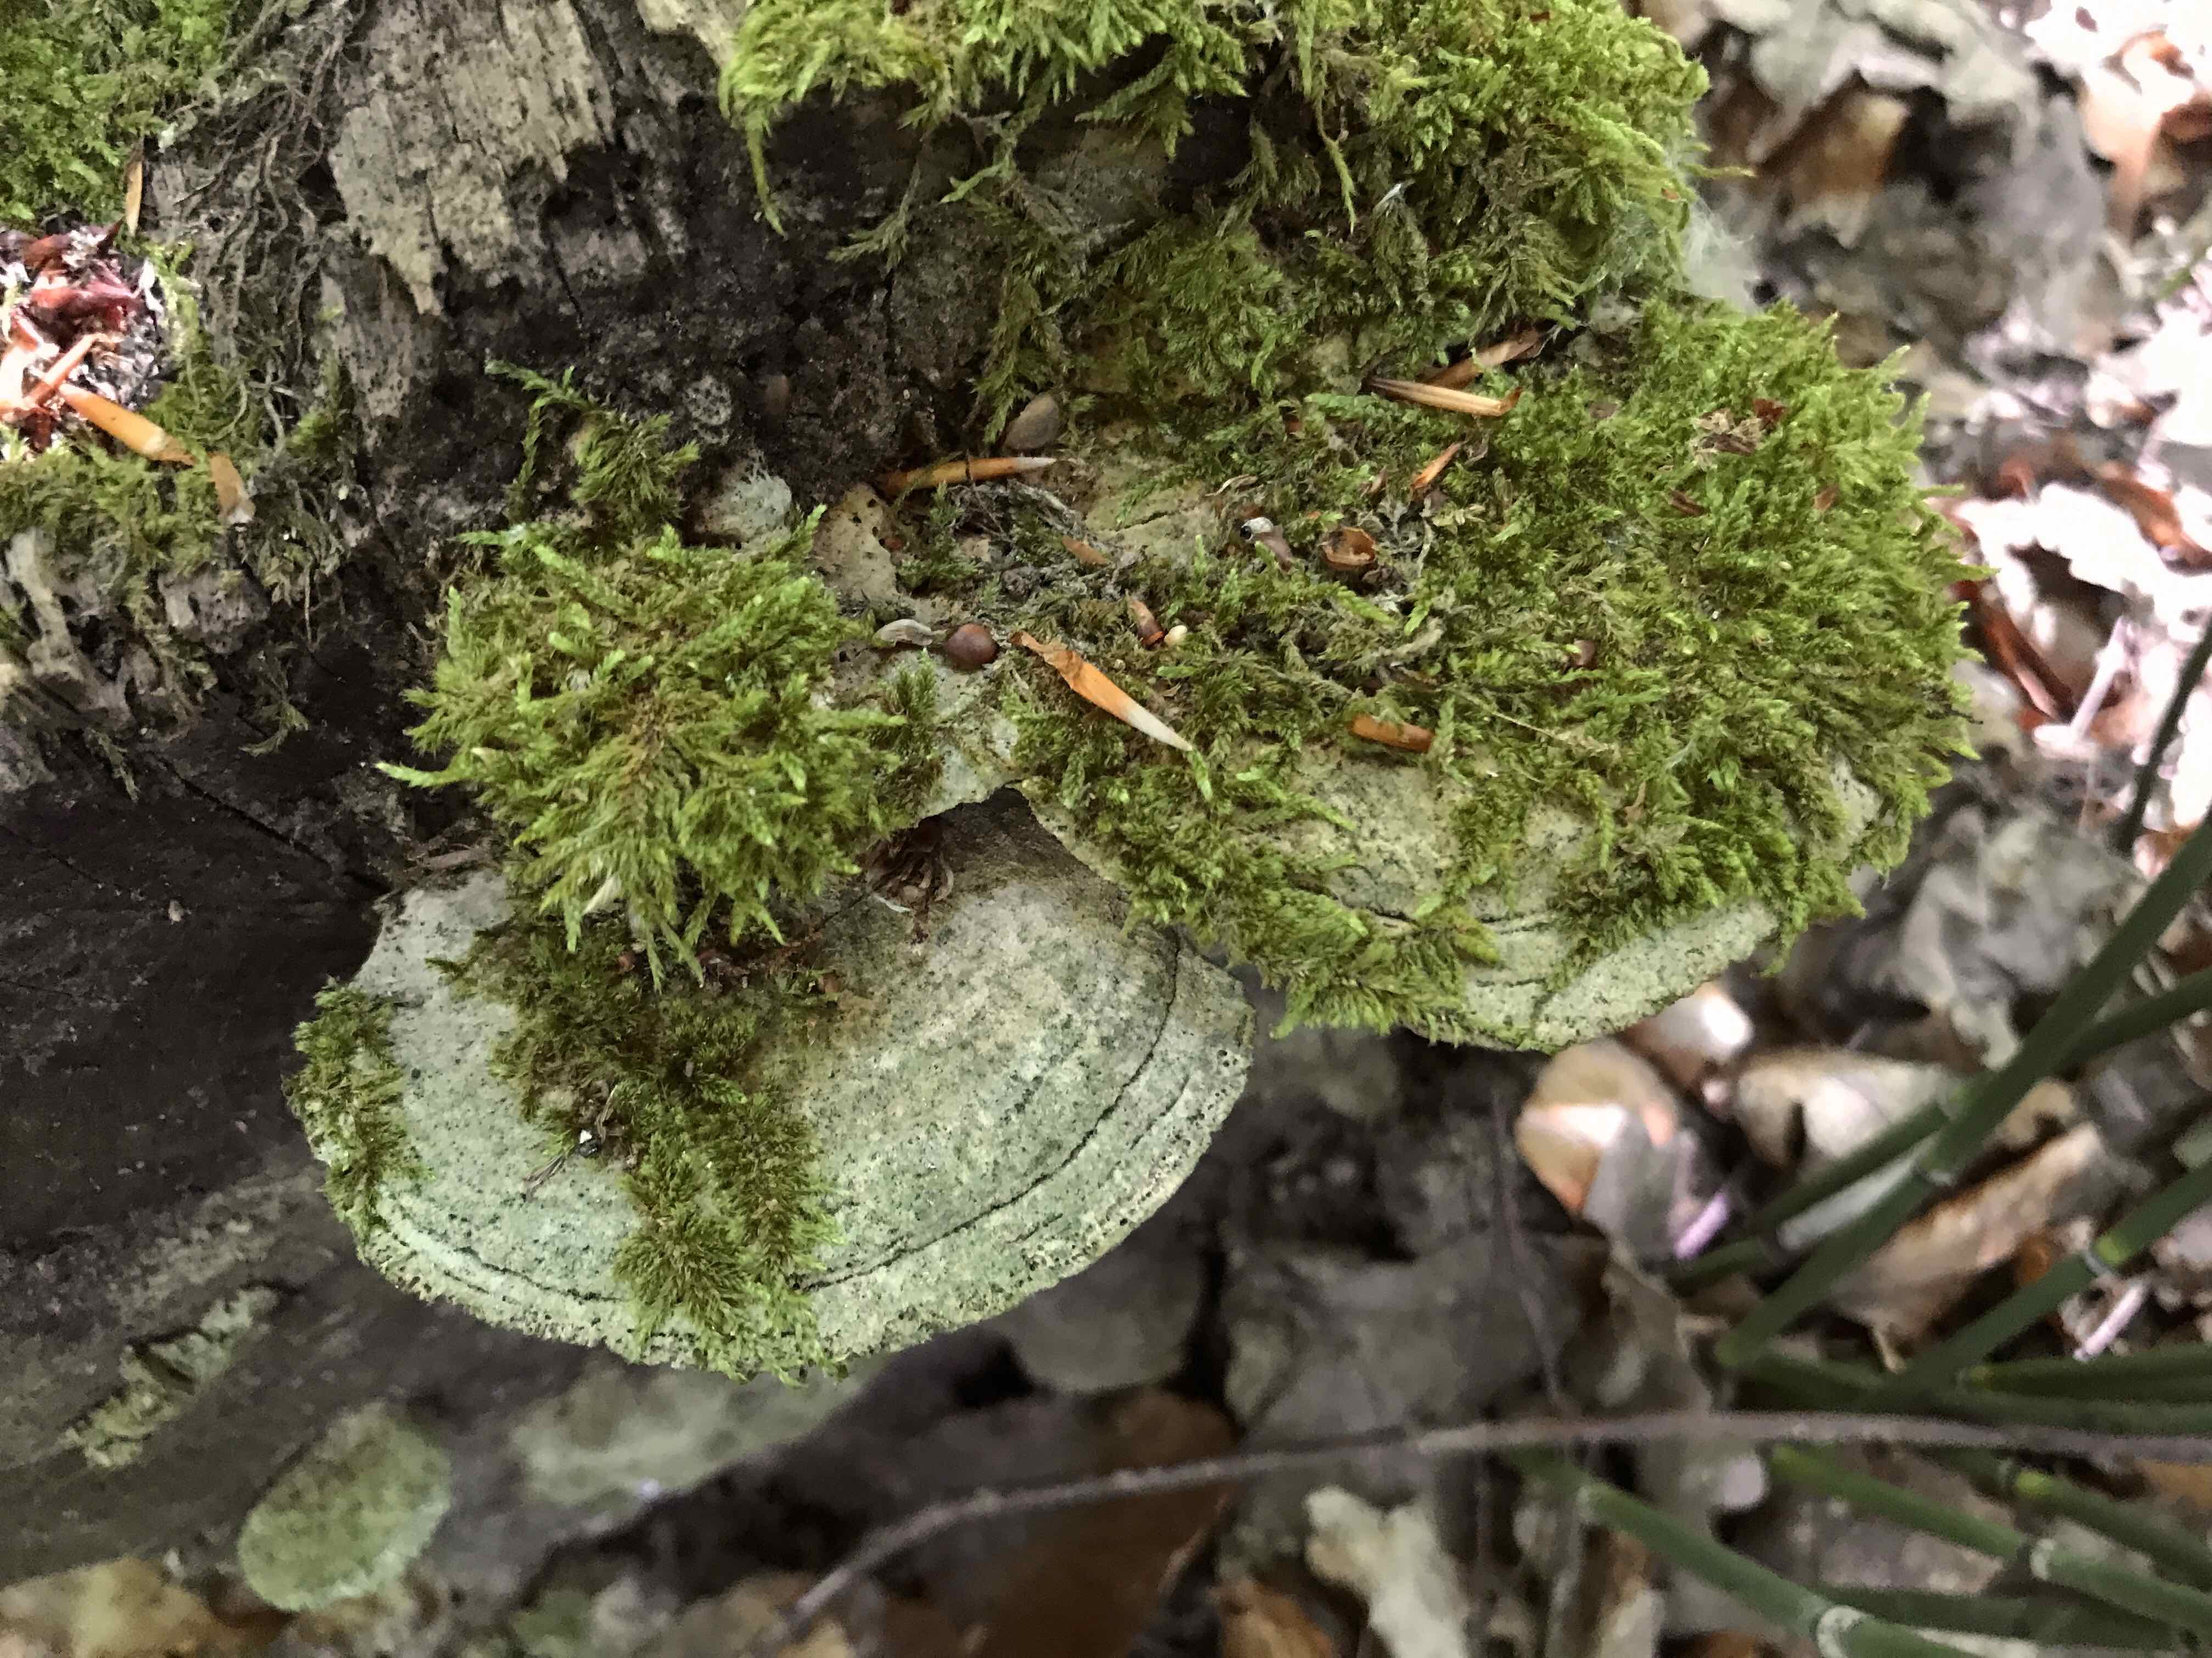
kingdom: Fungi
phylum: Basidiomycota
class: Agaricomycetes
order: Polyporales
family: Fomitopsidaceae
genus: Daedalea
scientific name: Daedalea quercina
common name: ege-labyrintsvamp
